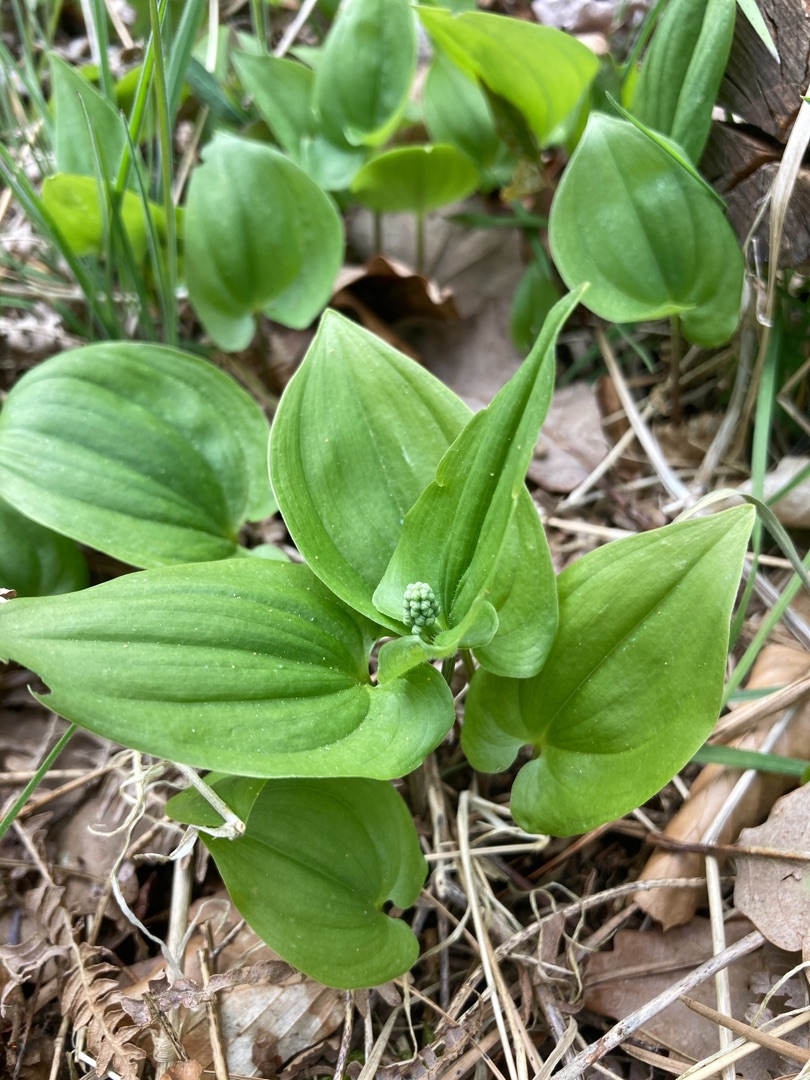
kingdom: Plantae
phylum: Tracheophyta
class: Liliopsida
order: Asparagales
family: Asparagaceae
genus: Maianthemum
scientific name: Maianthemum bifolium
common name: Majblomst
